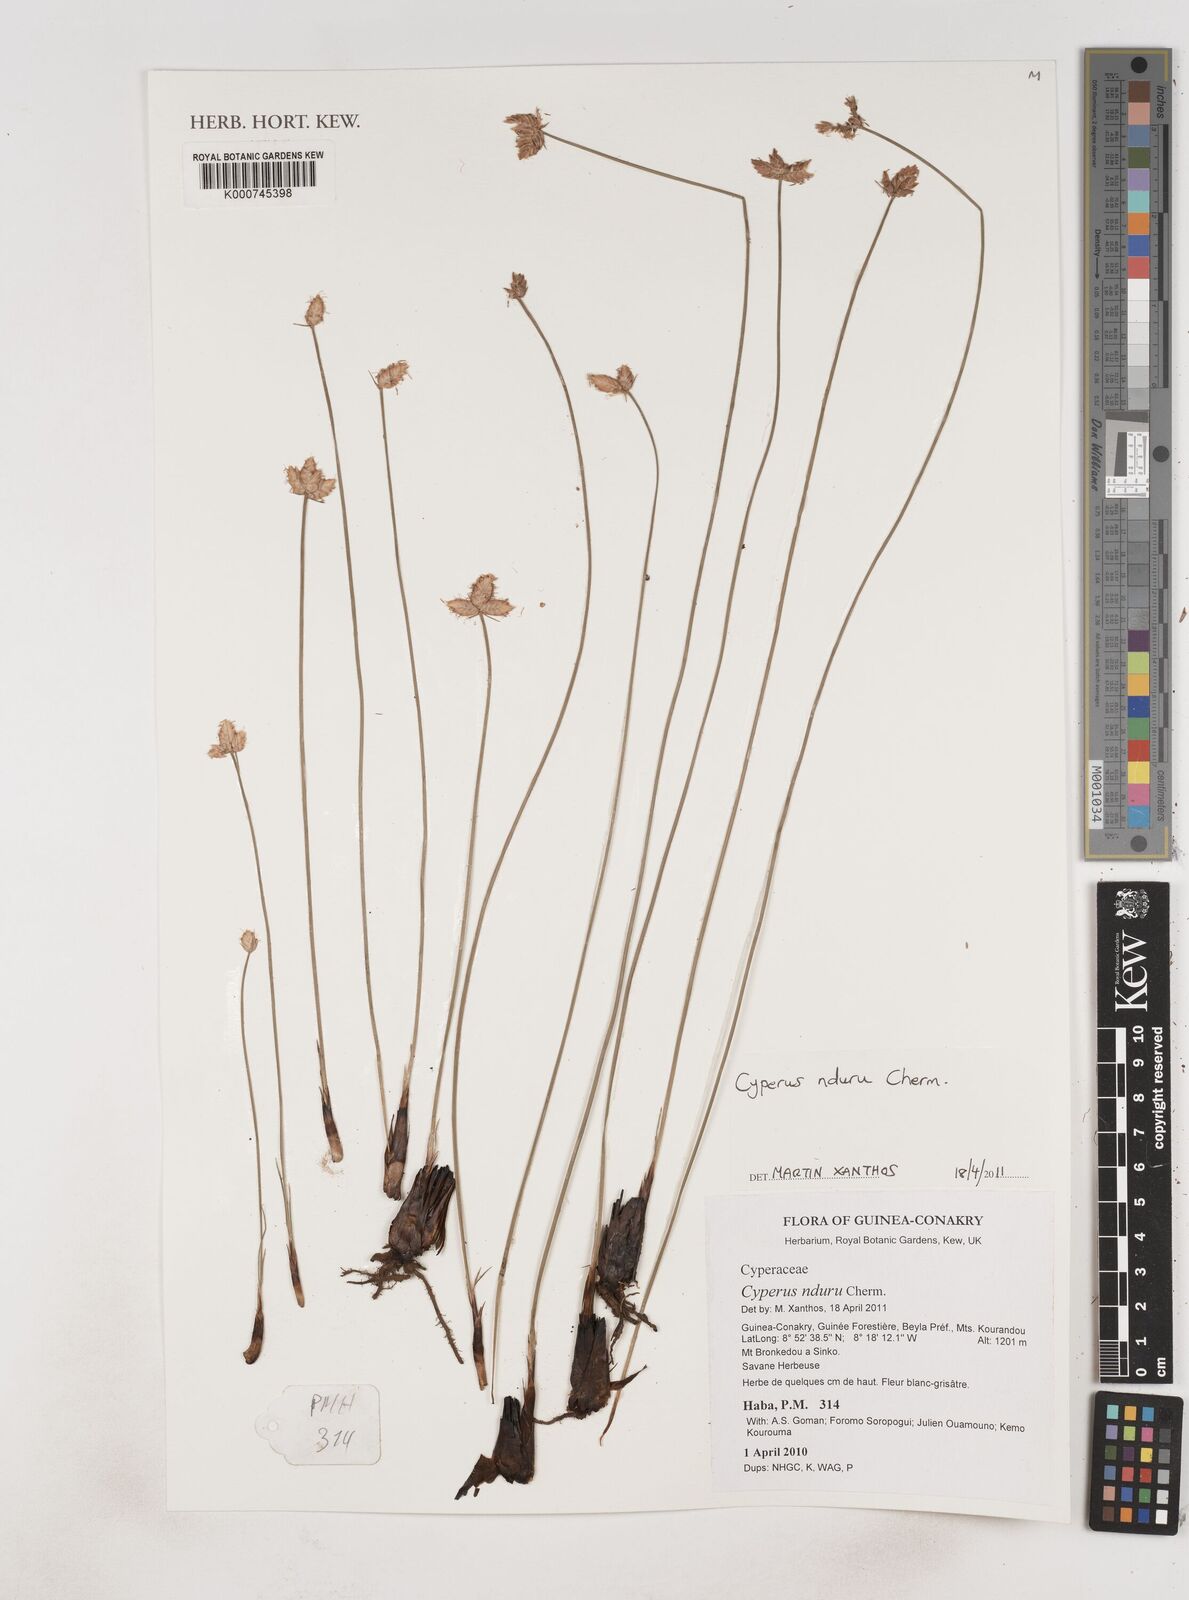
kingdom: Plantae
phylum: Tracheophyta
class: Liliopsida
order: Poales
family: Cyperaceae
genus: Cyperus
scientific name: Cyperus nduru
